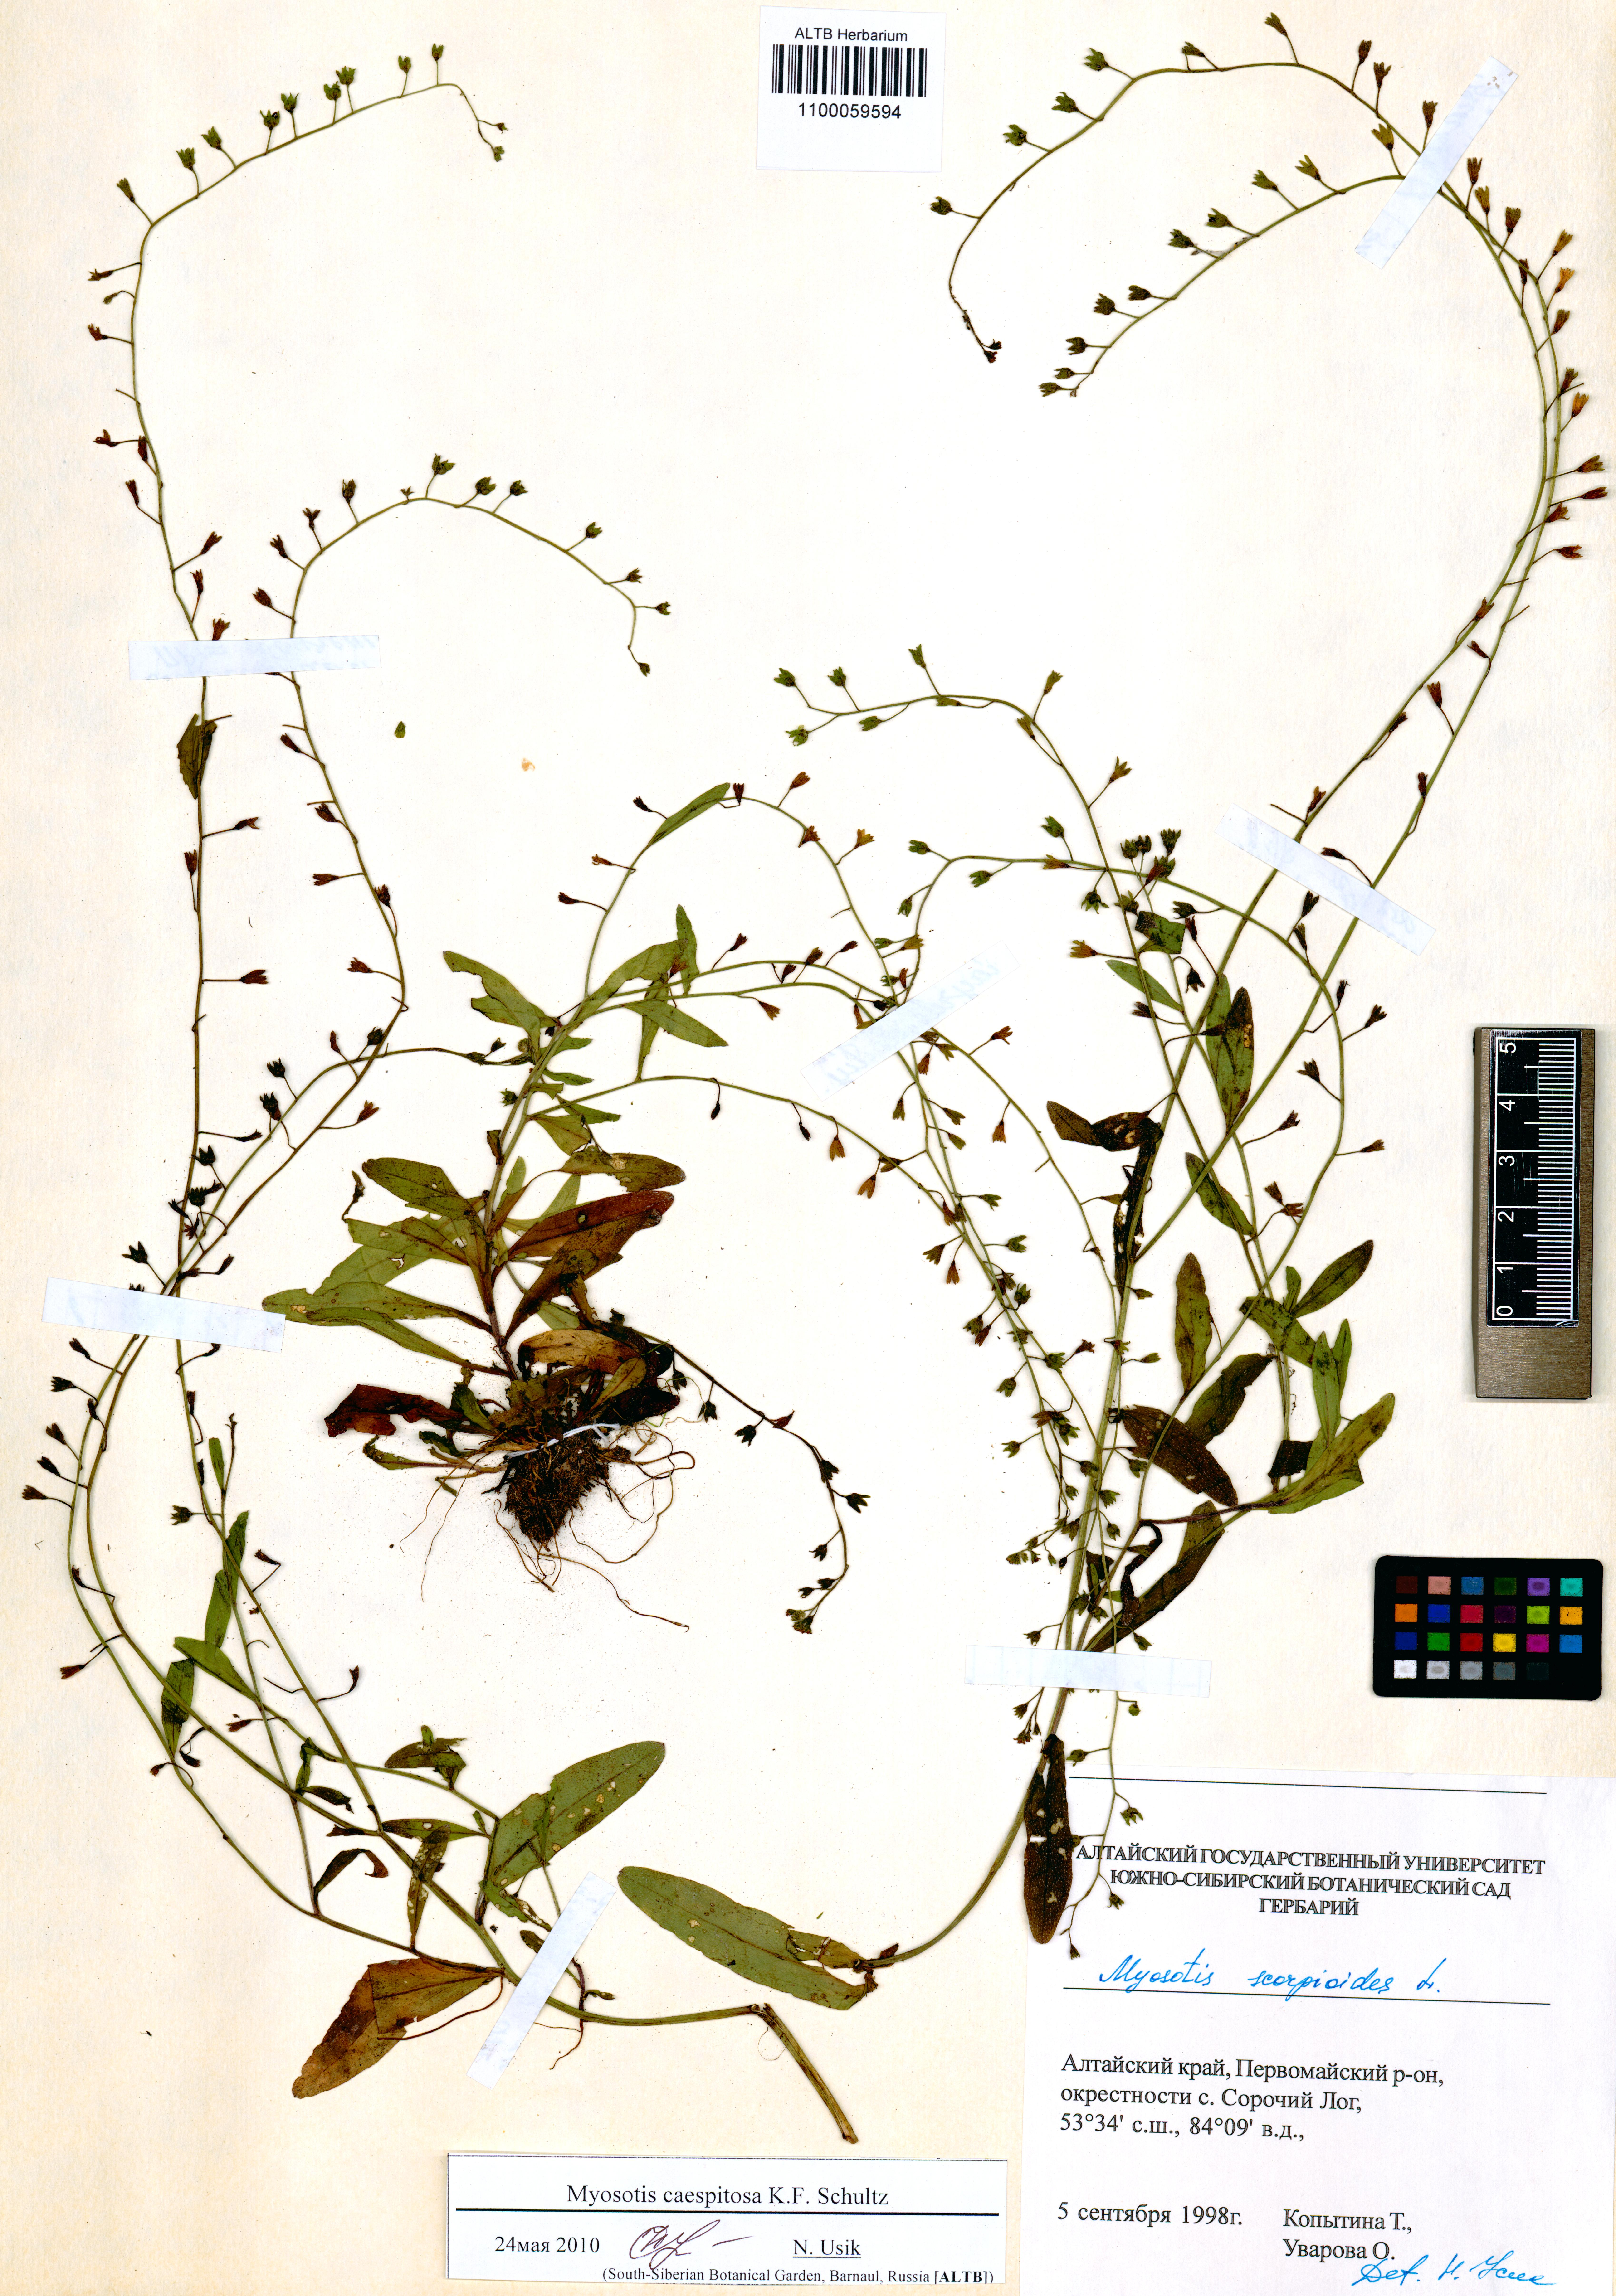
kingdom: Plantae
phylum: Tracheophyta
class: Magnoliopsida
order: Boraginales
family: Boraginaceae
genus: Myosotis
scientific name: Myosotis laxa
